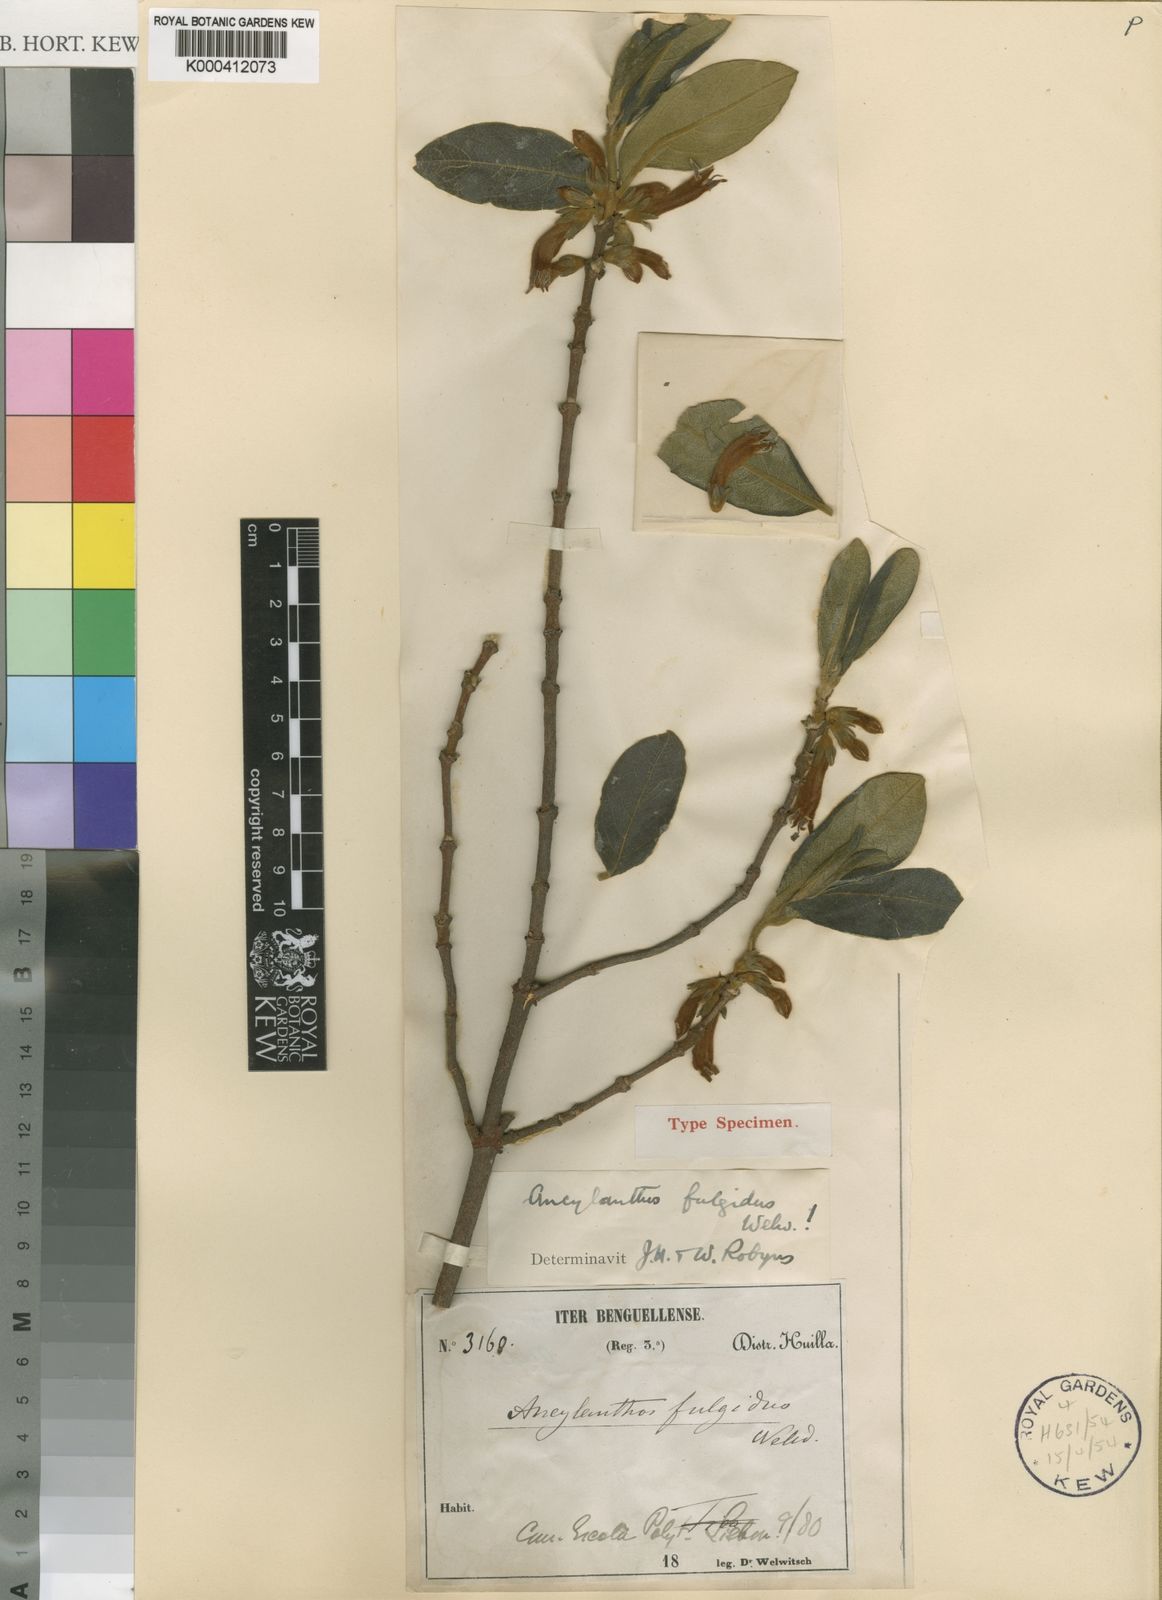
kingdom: Plantae
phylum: Tracheophyta
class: Magnoliopsida
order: Gentianales
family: Rubiaceae
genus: Vangueria
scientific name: Vangueria ferruginea
